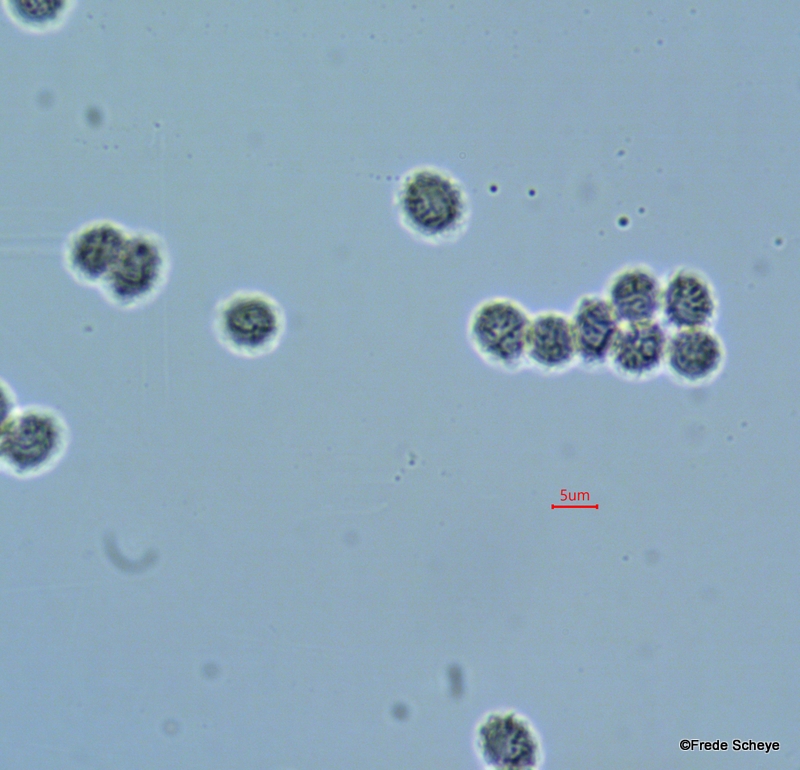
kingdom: Fungi
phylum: Basidiomycota
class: Agaricomycetes
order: Russulales
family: Russulaceae
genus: Lactarius
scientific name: Lactarius scoticus
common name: tørve-mælkehat
